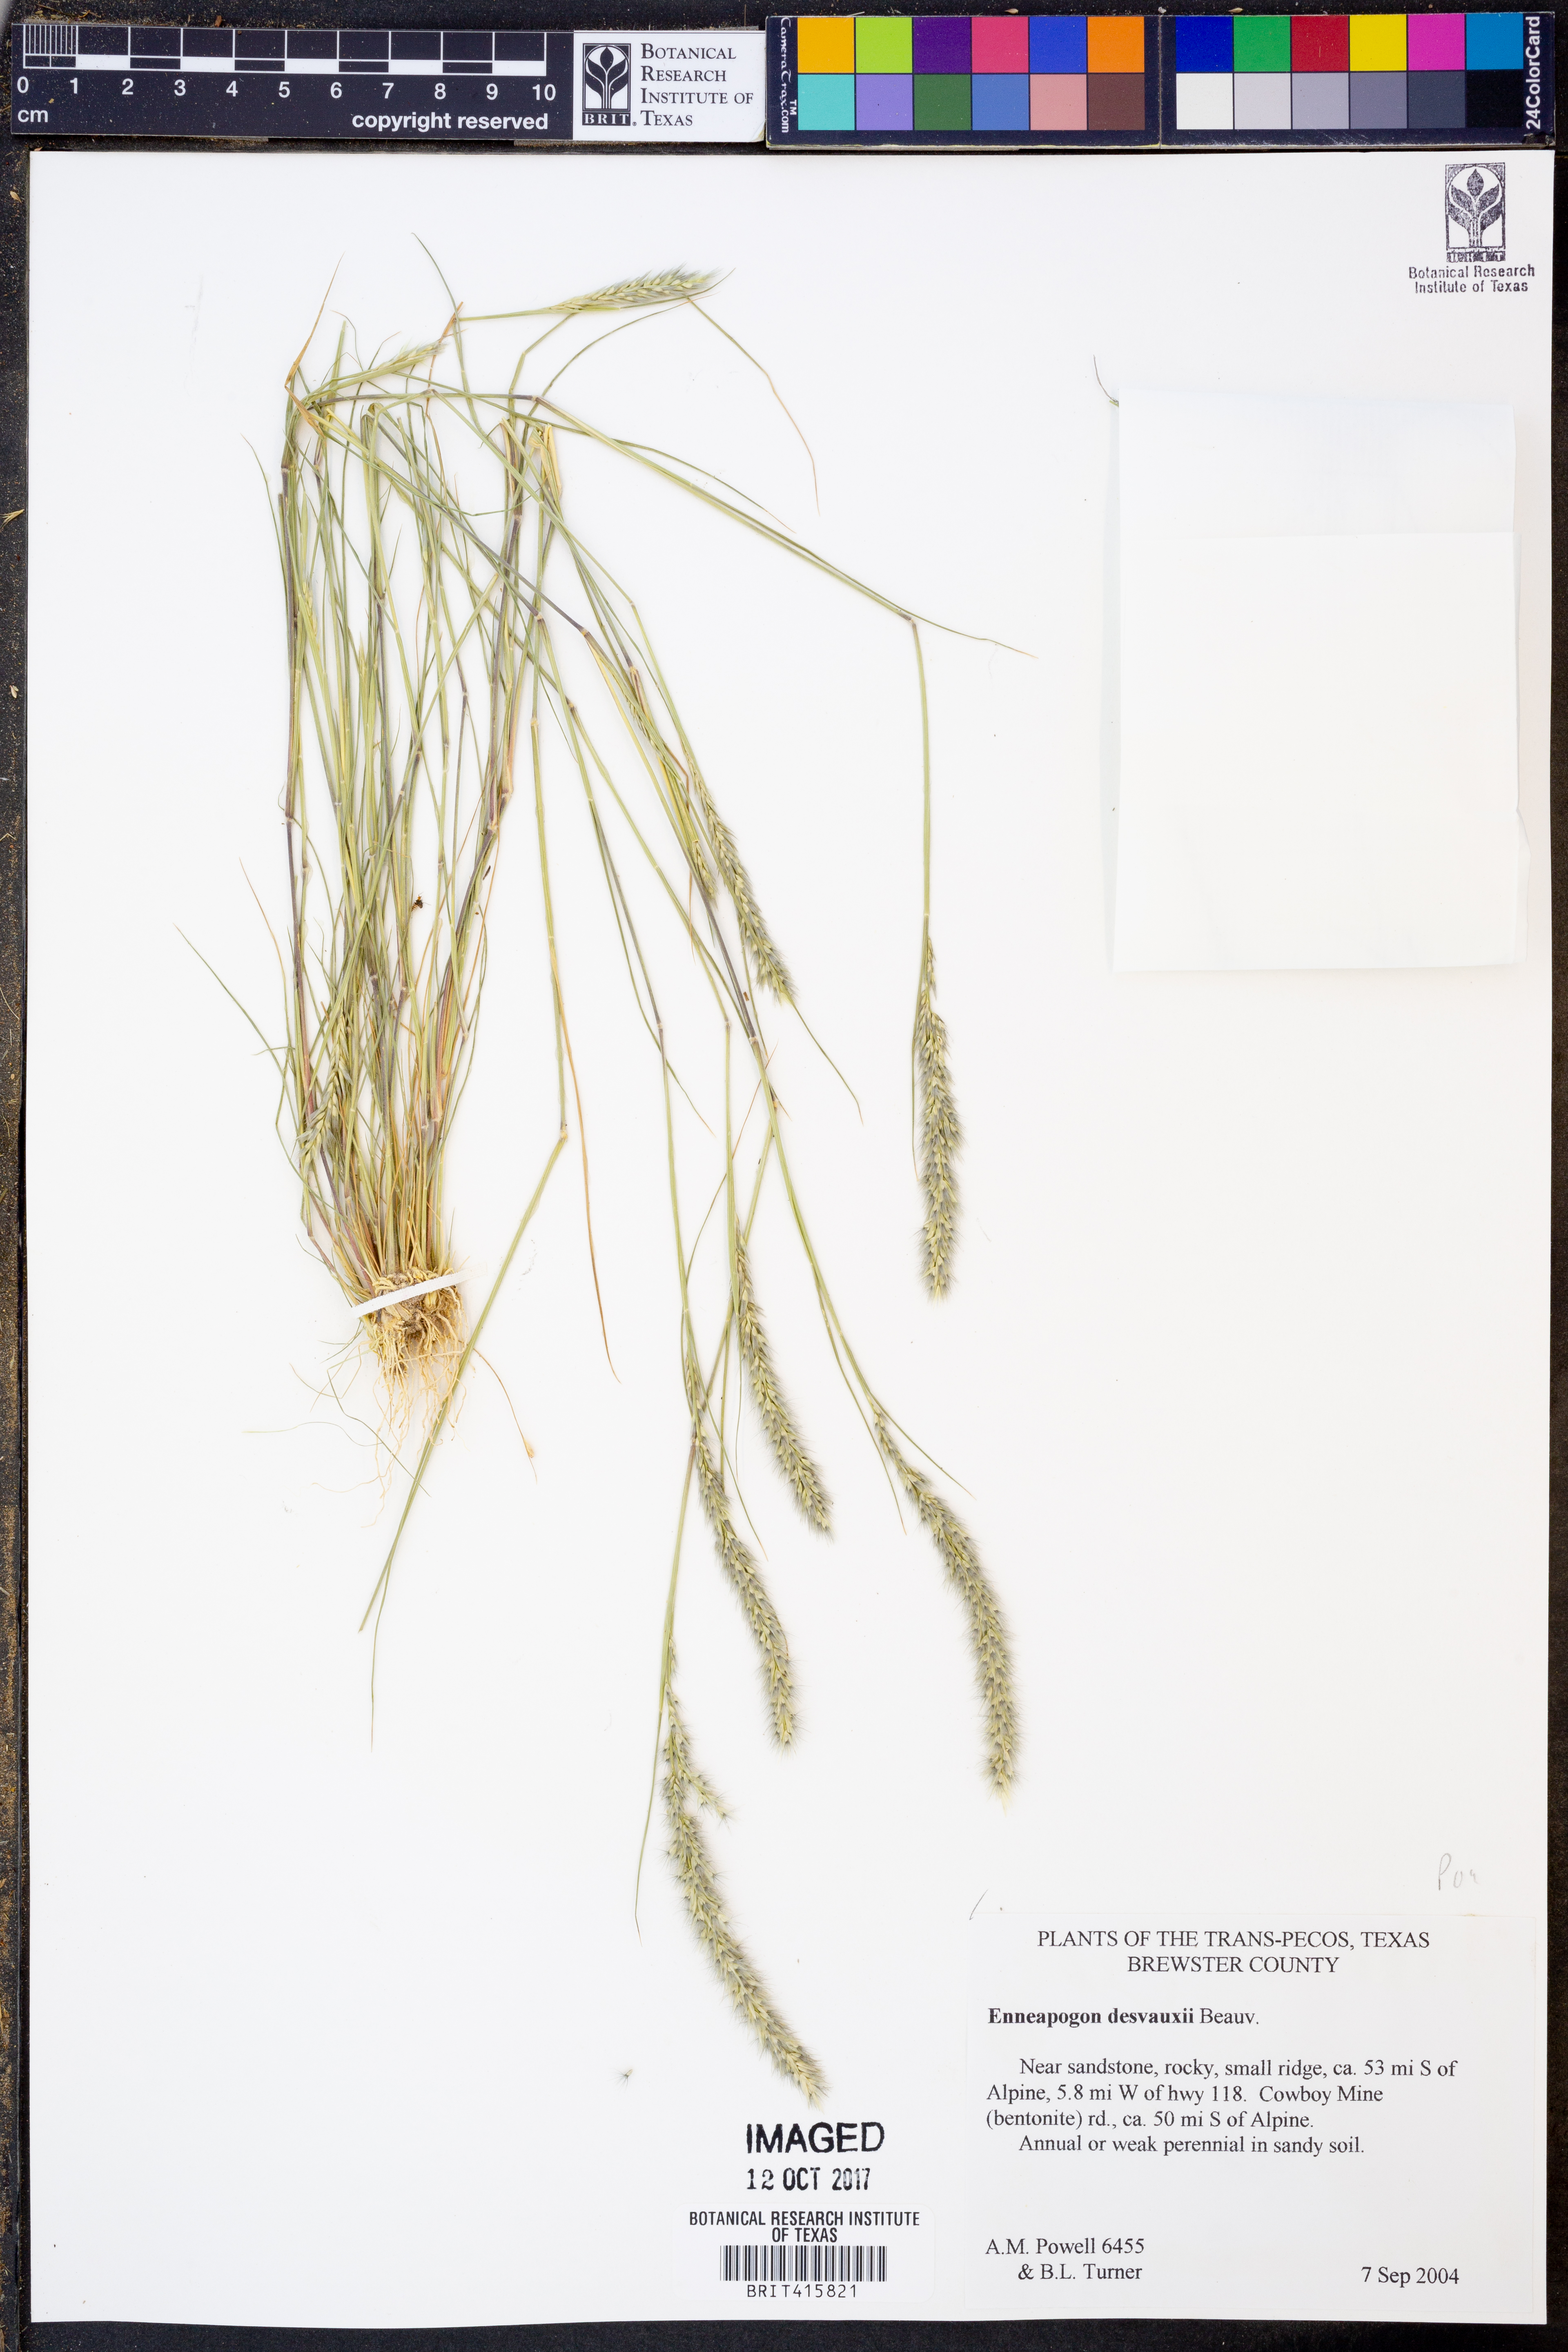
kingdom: Plantae
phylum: Tracheophyta
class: Liliopsida
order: Poales
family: Poaceae
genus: Enneapogon
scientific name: Enneapogon desvauxii
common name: Feather pappus grass
